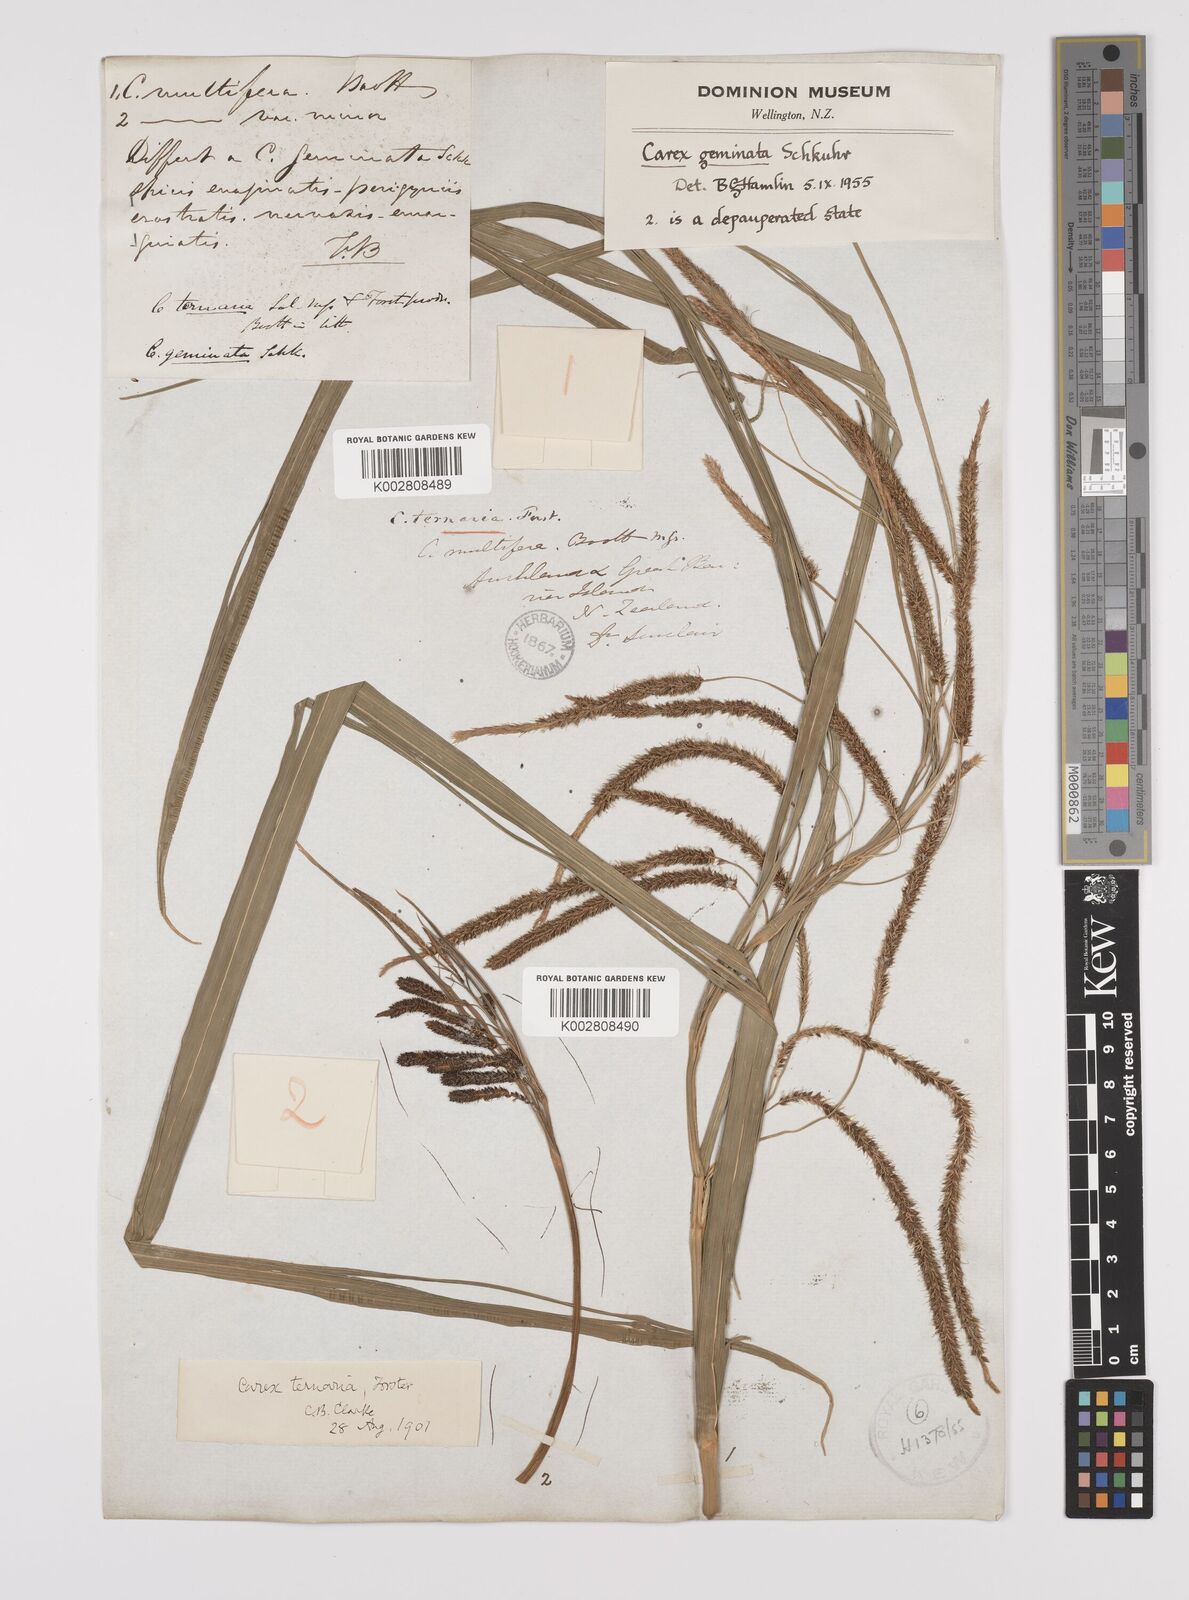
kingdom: Plantae
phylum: Tracheophyta
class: Liliopsida
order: Poales
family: Cyperaceae
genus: Carex
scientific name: Carex geminata
